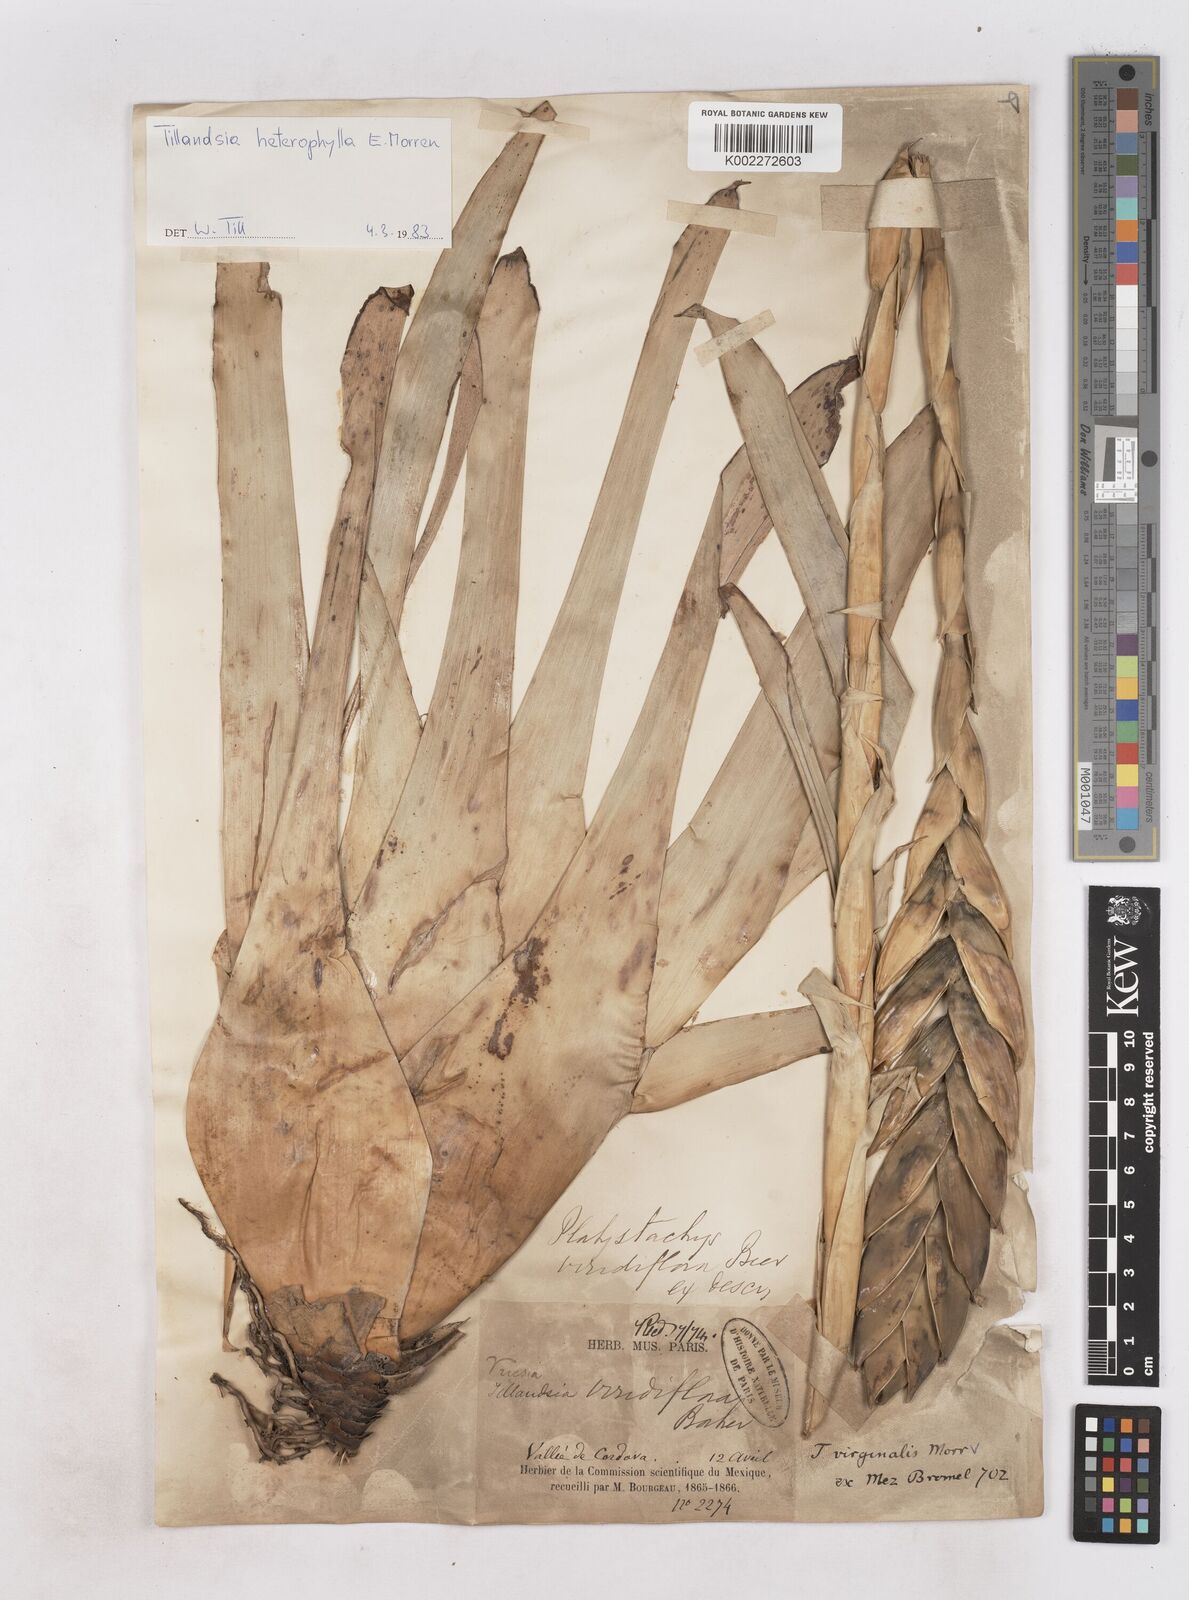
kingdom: Plantae
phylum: Tracheophyta
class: Liliopsida
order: Poales
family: Bromeliaceae
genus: Tillandsia
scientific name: Tillandsia heterophylla
